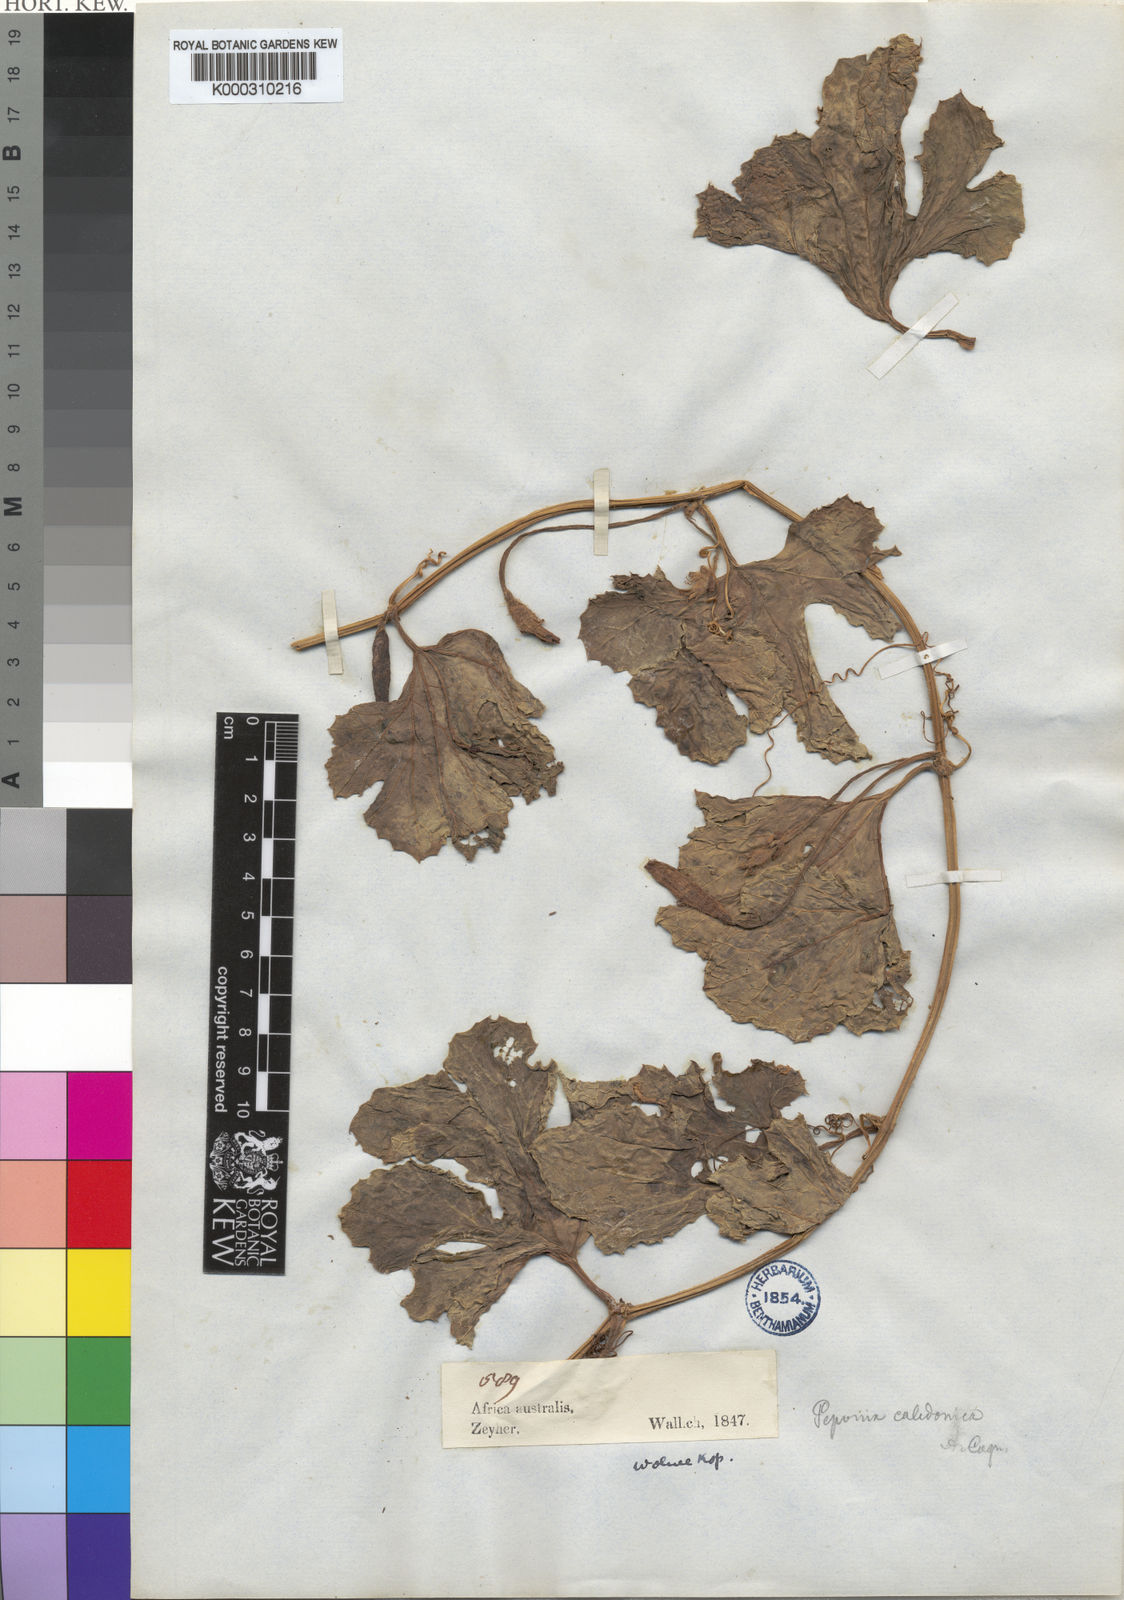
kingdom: Plantae
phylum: Tracheophyta
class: Magnoliopsida
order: Cucurbitales
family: Cucurbitaceae
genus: Peponium
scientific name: Peponium caledonicum
